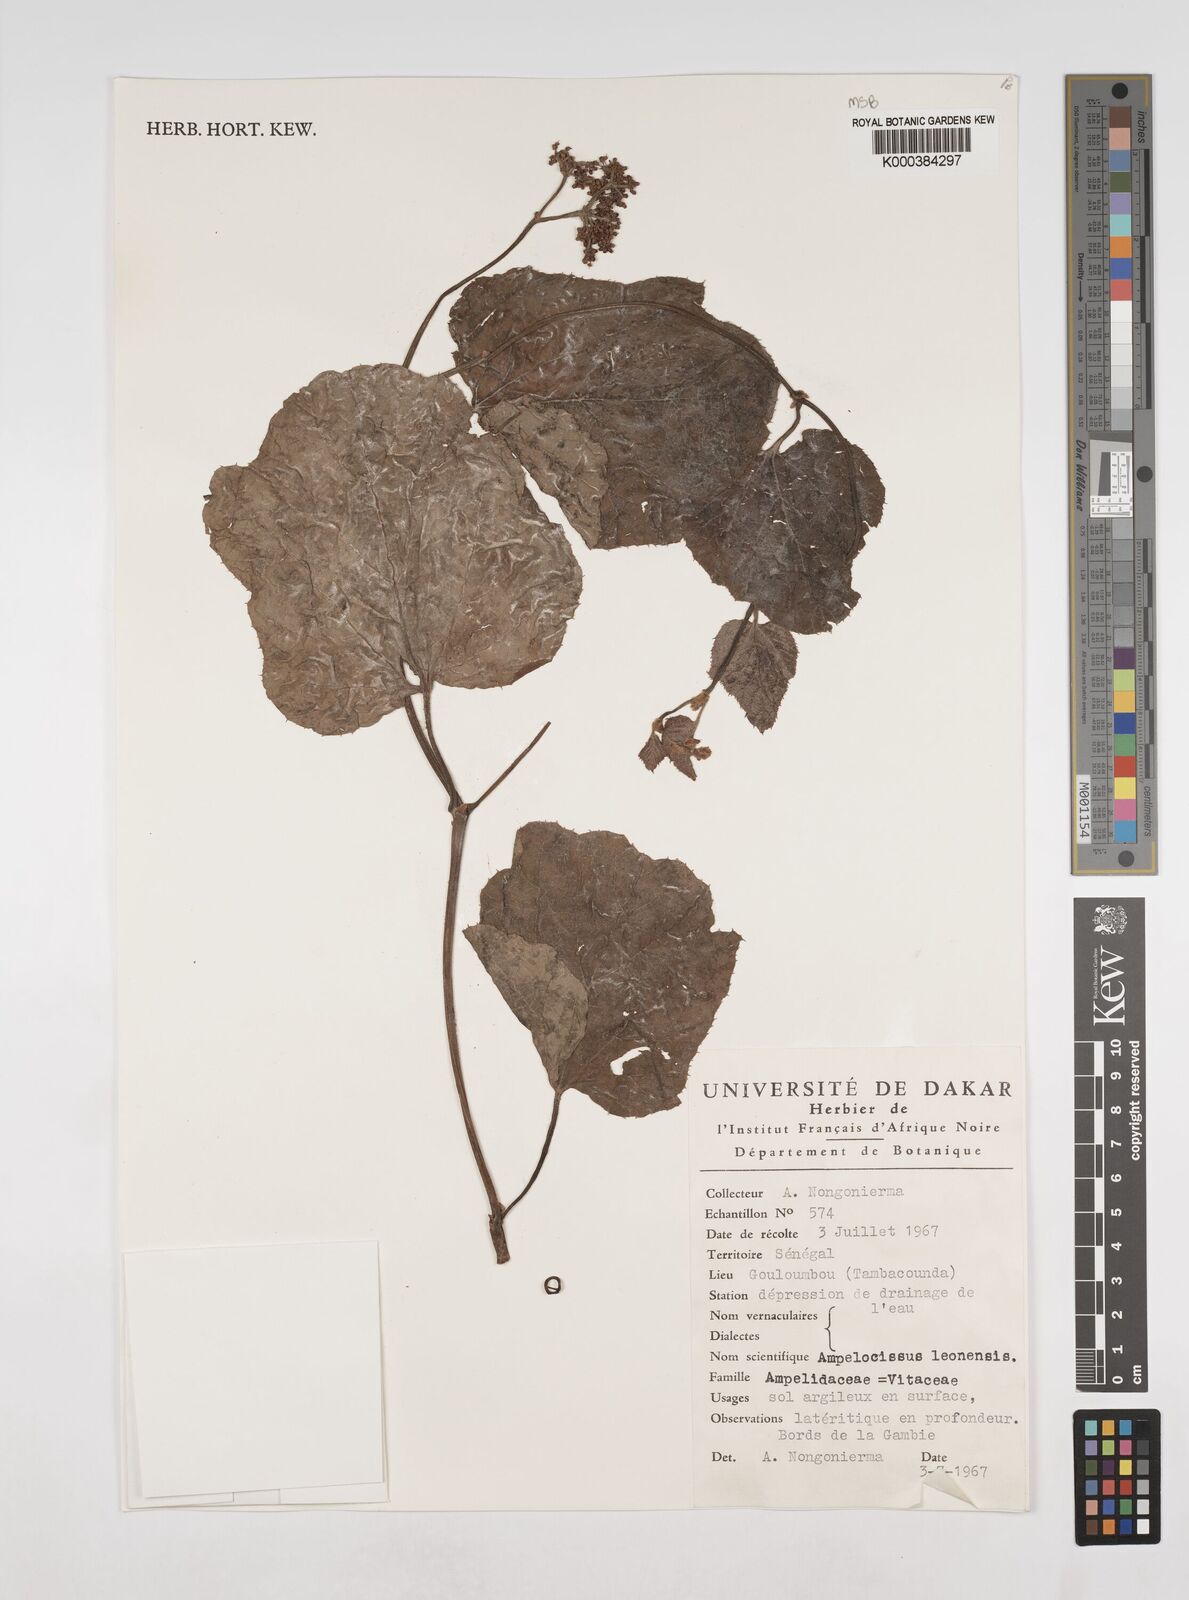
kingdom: Plantae
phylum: Tracheophyta
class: Magnoliopsida
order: Vitales
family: Vitaceae
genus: Ampelocissus
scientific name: Ampelocissus leonensis
